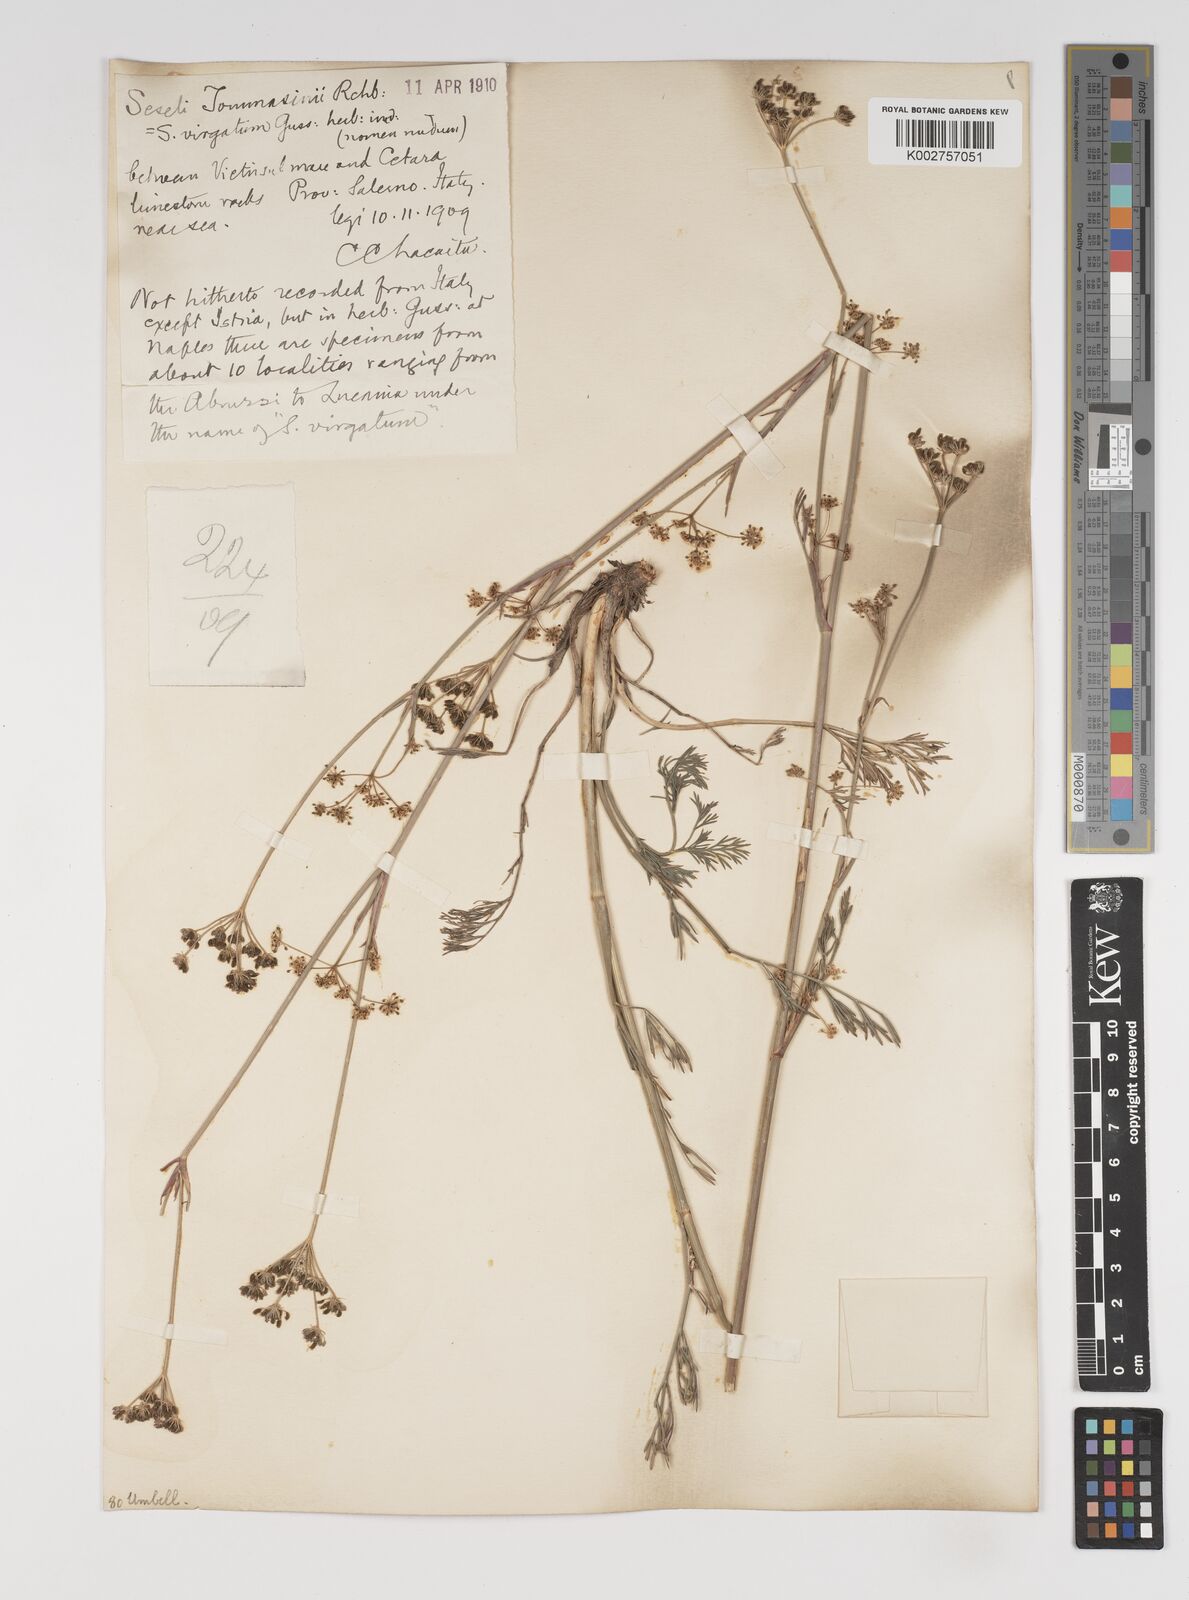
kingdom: Plantae
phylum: Tracheophyta
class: Magnoliopsida
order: Apiales
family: Apiaceae
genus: Seseli
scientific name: Seseli montanum
